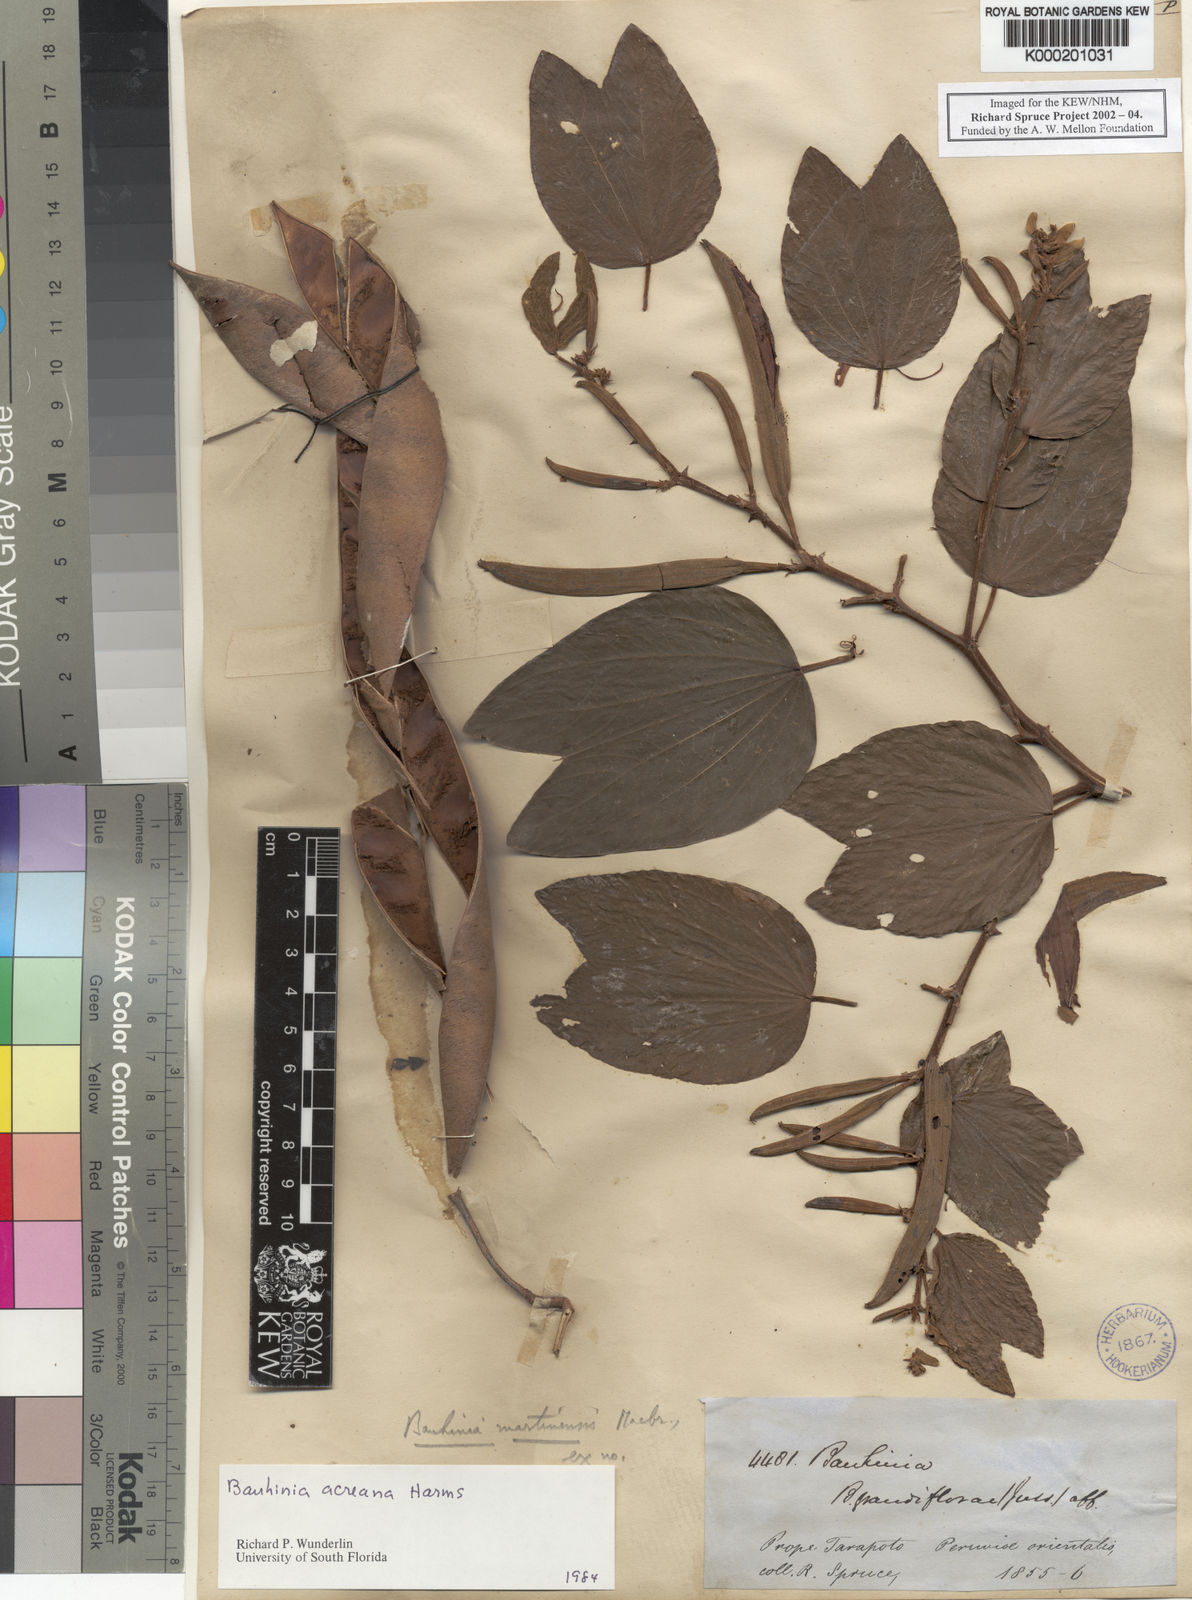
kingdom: Plantae
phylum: Tracheophyta
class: Magnoliopsida
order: Fabales
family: Fabaceae
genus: Bauhinia
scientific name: Bauhinia acreana
